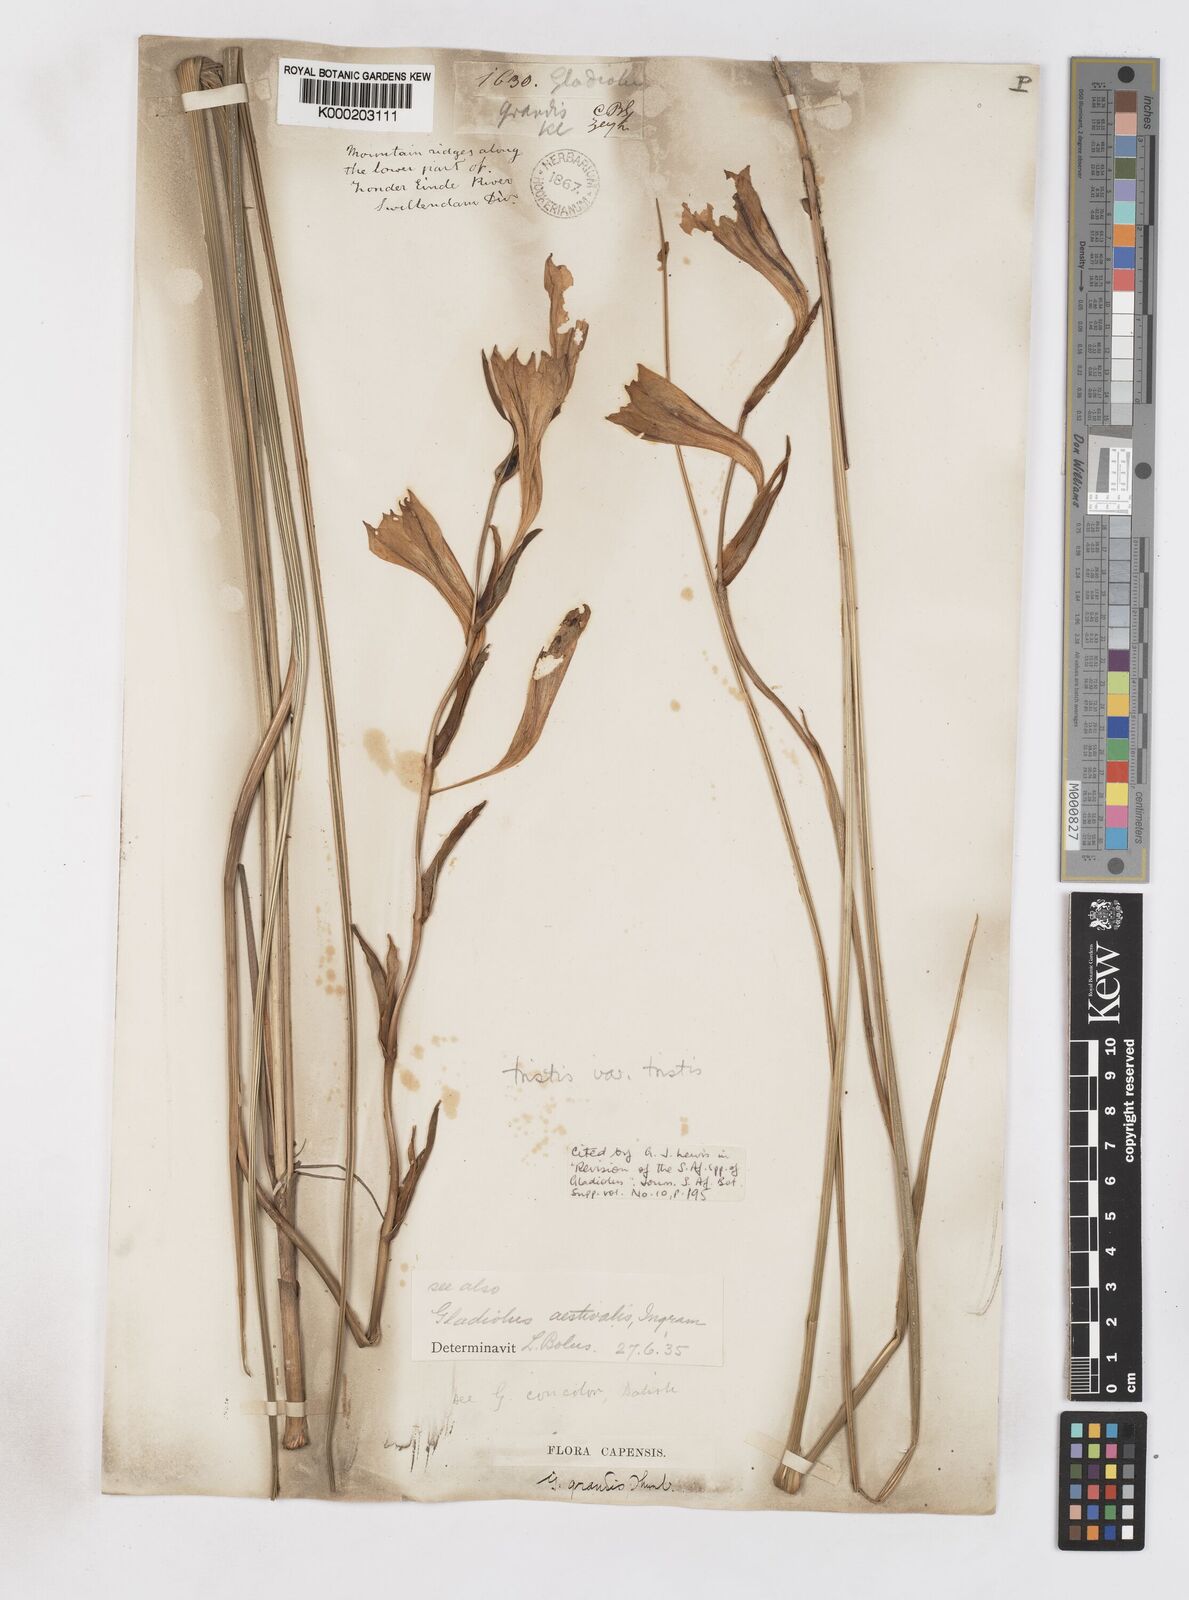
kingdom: Plantae
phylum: Tracheophyta
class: Liliopsida
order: Asparagales
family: Iridaceae
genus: Gladiolus
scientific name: Gladiolus tristis
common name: Ever-flowering gladiolus
